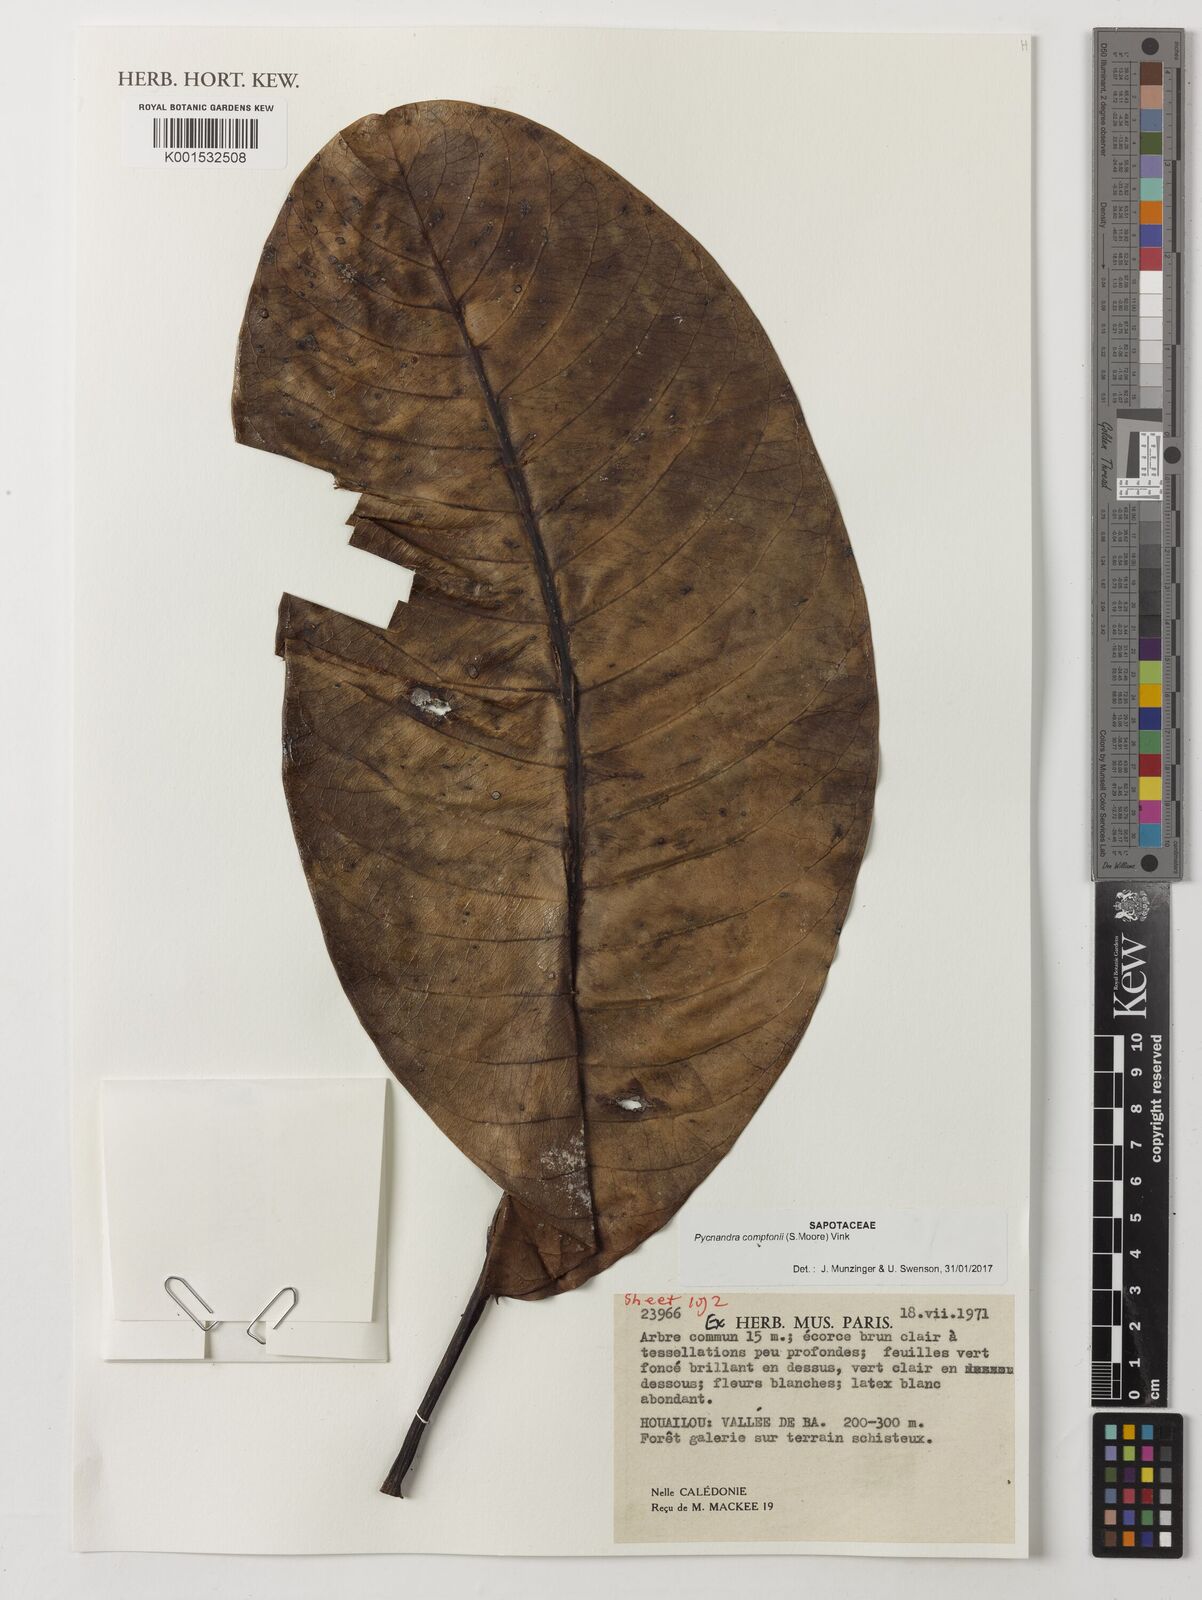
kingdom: Plantae
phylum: Tracheophyta
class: Magnoliopsida
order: Ericales
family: Sapotaceae
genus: Pycnandra
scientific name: Pycnandra comptonii
